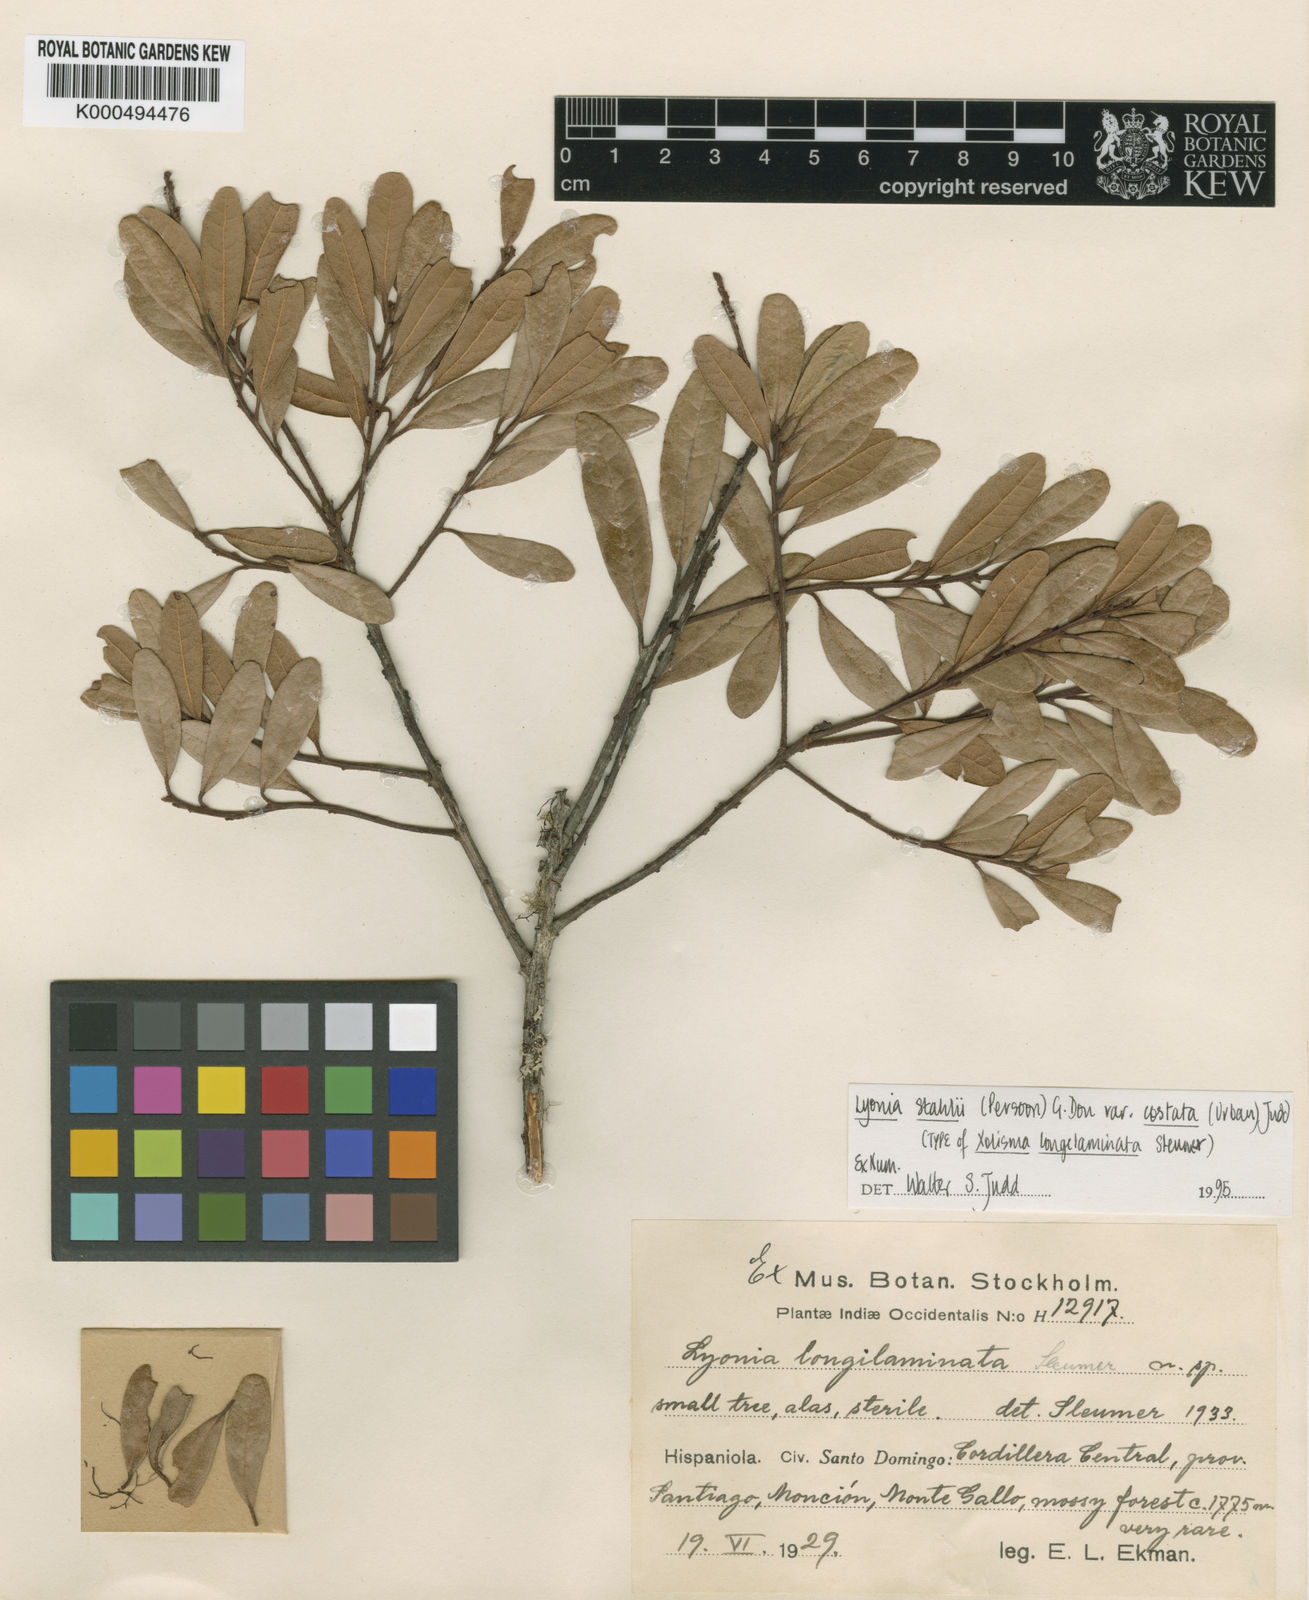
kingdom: Plantae
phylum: Tracheophyta
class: Magnoliopsida
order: Ericales
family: Ericaceae
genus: Lyonia
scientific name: Lyonia stahlii
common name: Stahl's staggerbush
